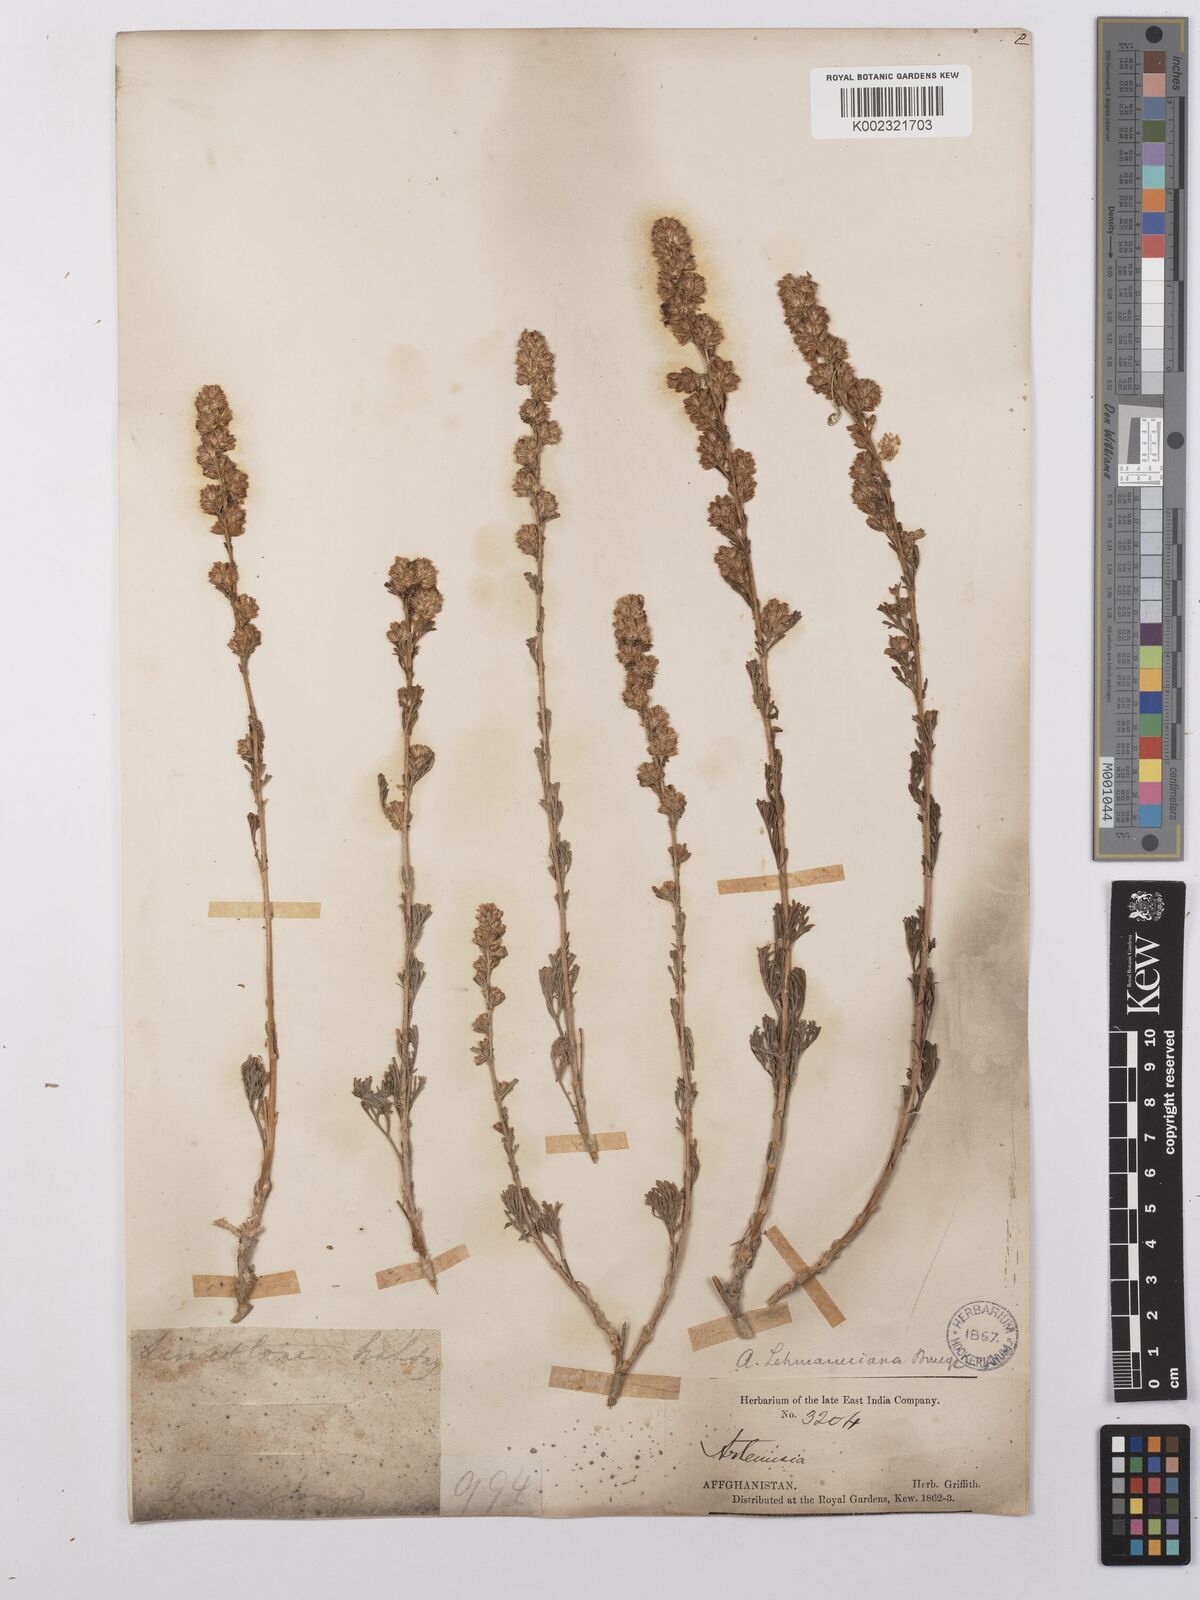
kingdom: Plantae
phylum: Tracheophyta
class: Magnoliopsida
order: Asterales
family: Asteraceae
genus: Artemisia
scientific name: Artemisia lehmanniana
